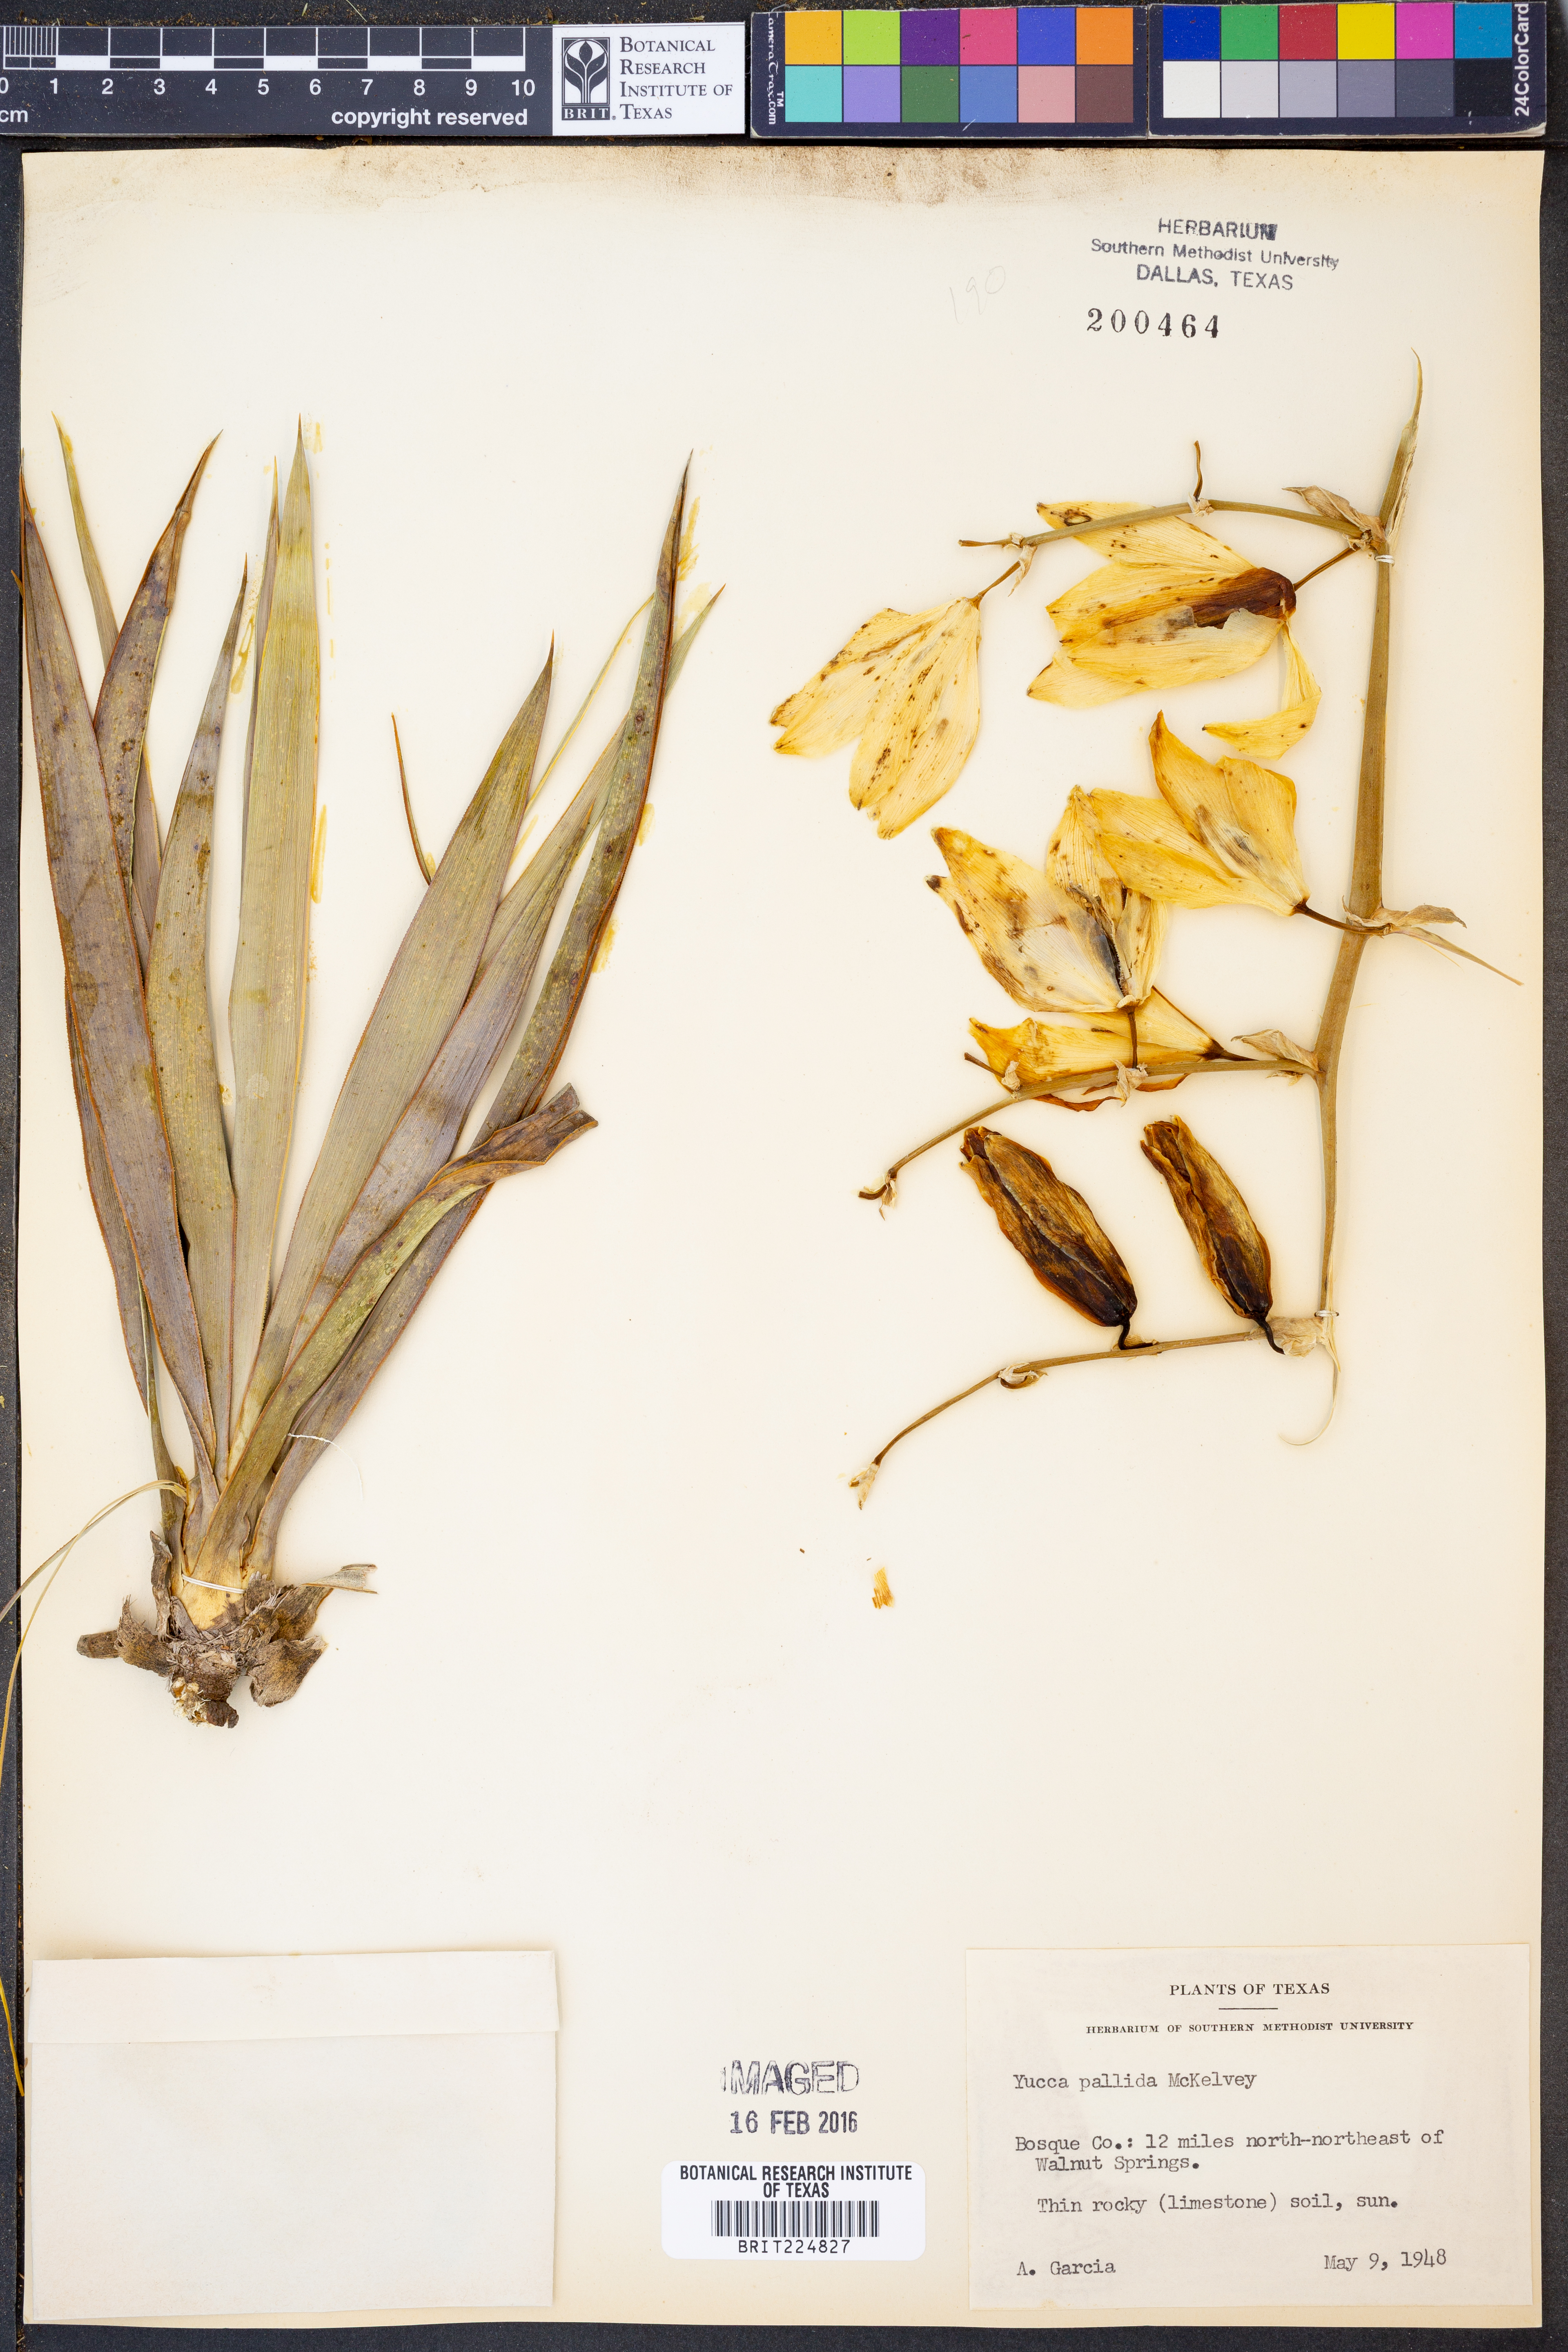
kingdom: Plantae
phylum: Tracheophyta
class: Liliopsida
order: Asparagales
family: Asparagaceae
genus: Yucca
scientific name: Yucca pallida
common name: Pale leaf yucca
